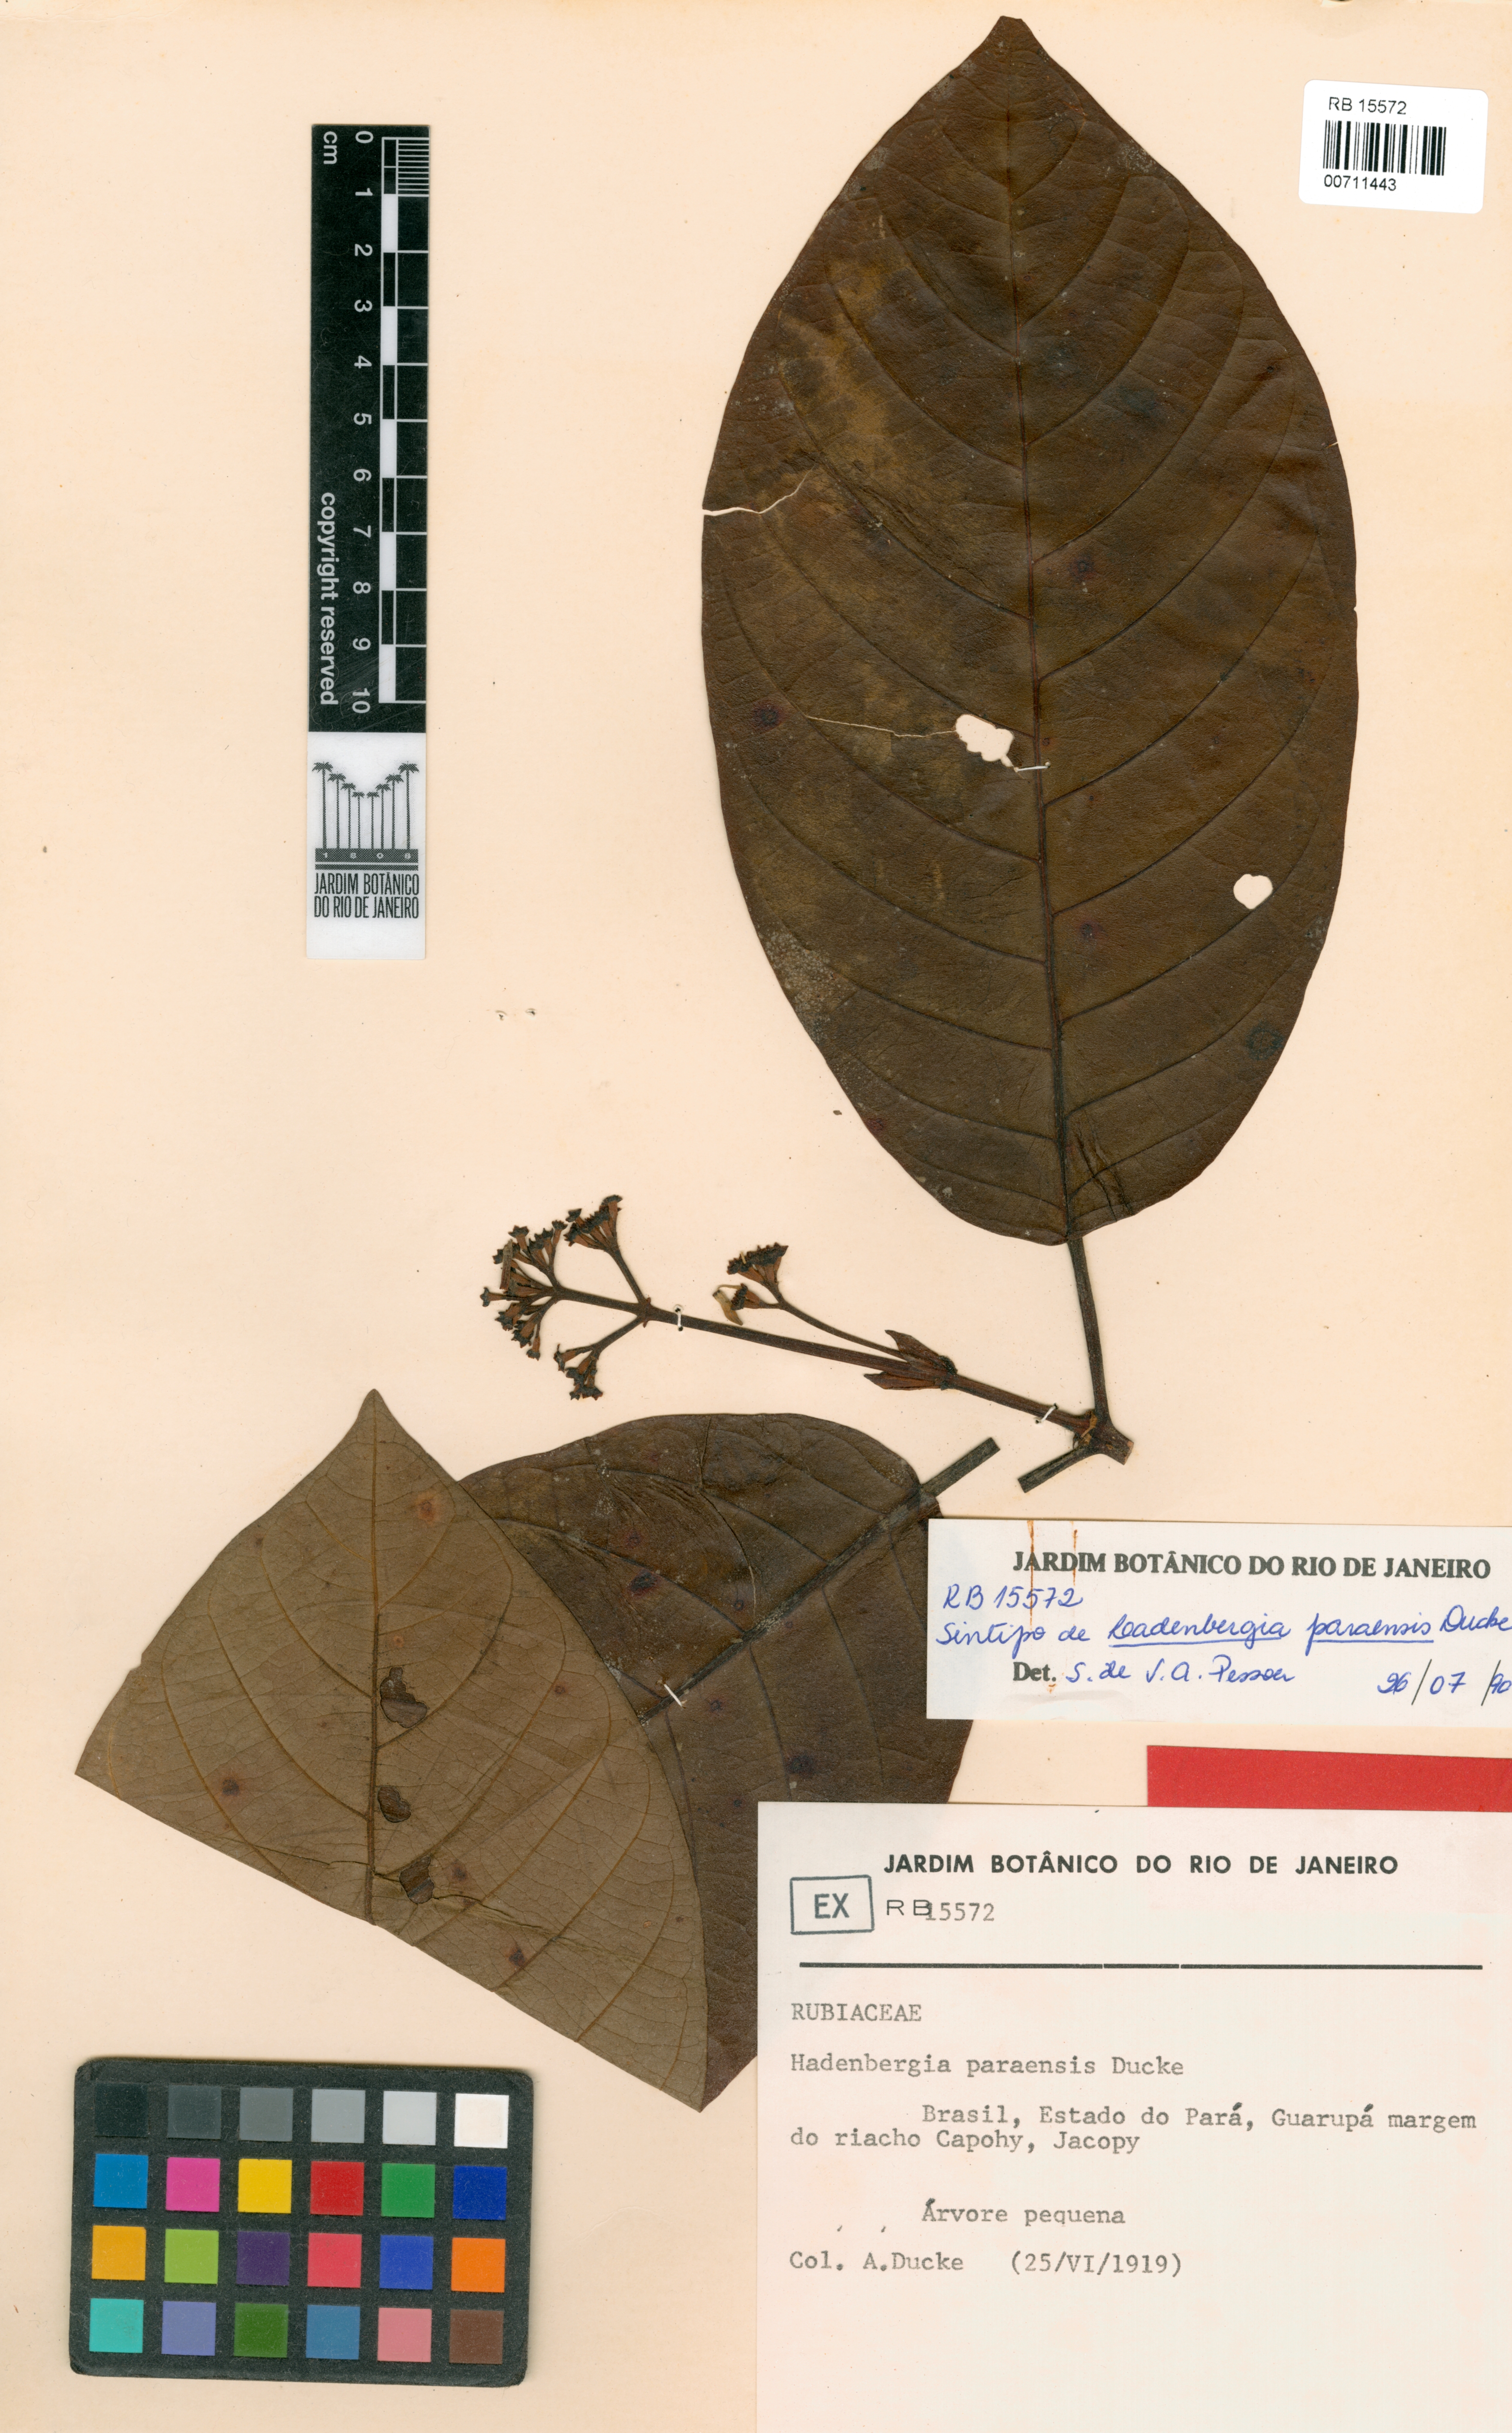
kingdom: Plantae
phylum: Tracheophyta
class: Magnoliopsida
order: Gentianales
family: Rubiaceae
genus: Ladenbergia
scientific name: Ladenbergia paraensis
